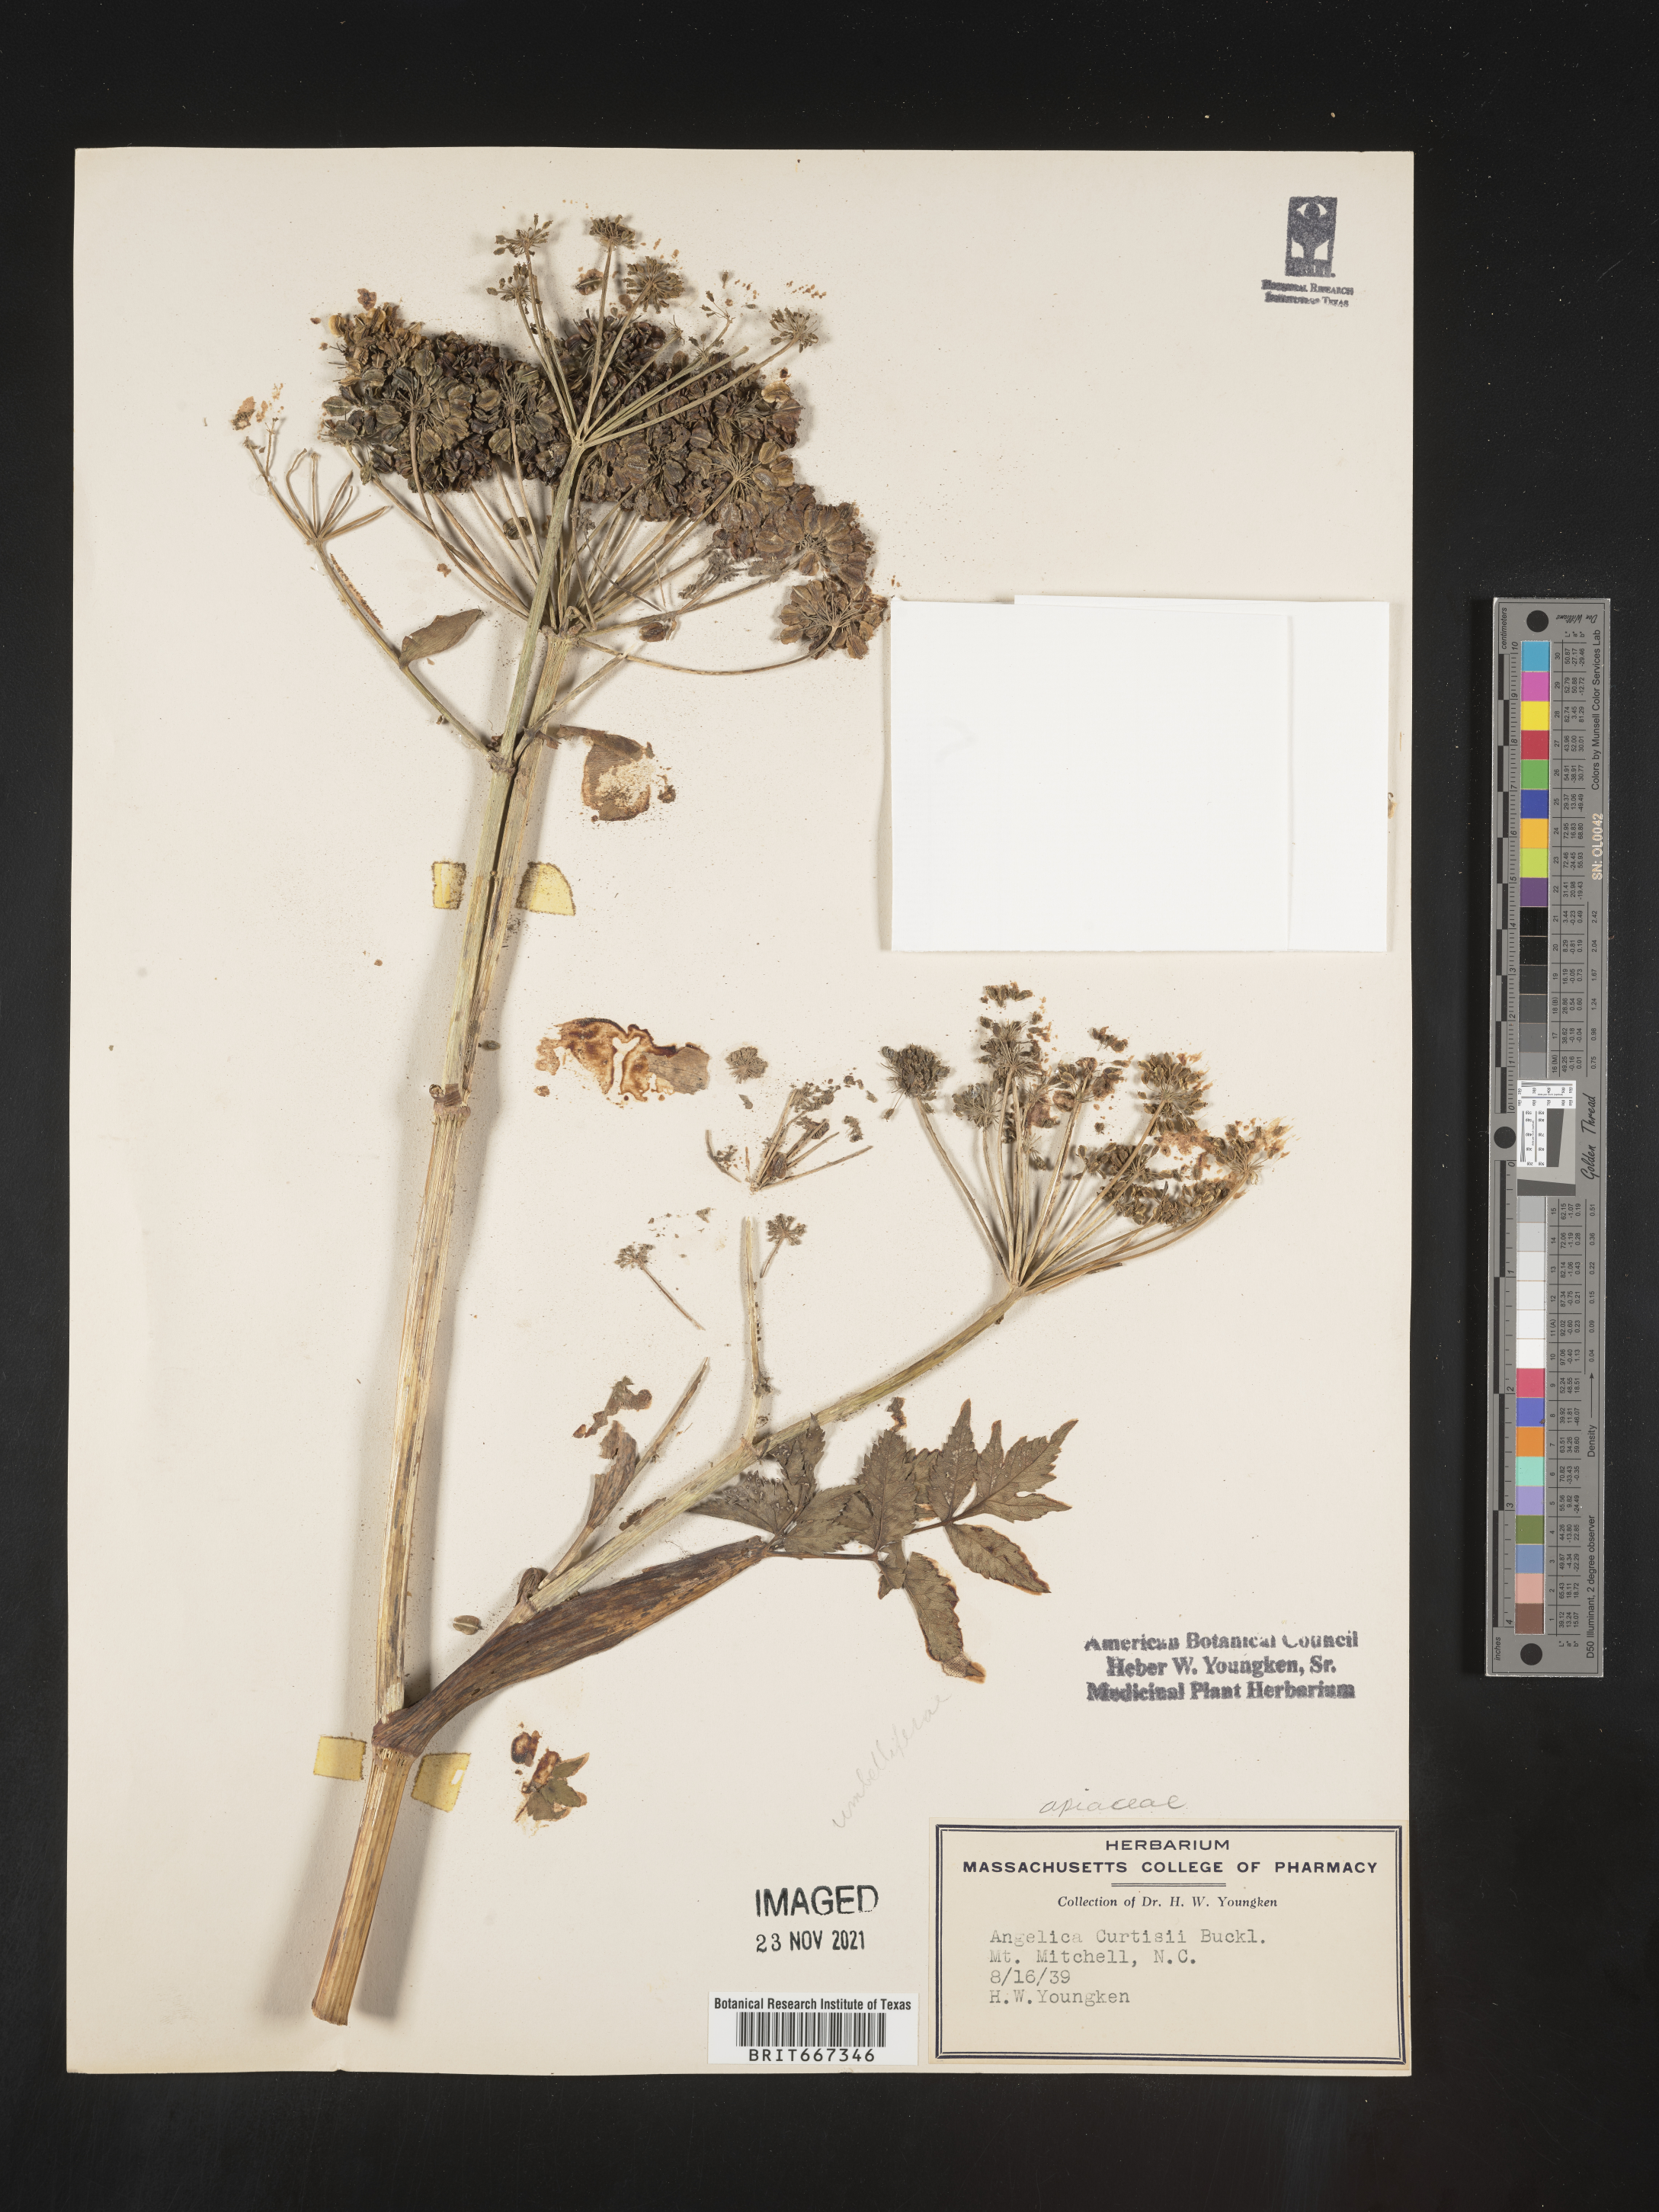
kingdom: Plantae
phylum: Tracheophyta
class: Magnoliopsida
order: Apiales
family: Apiaceae
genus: Angelica
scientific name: Angelica
